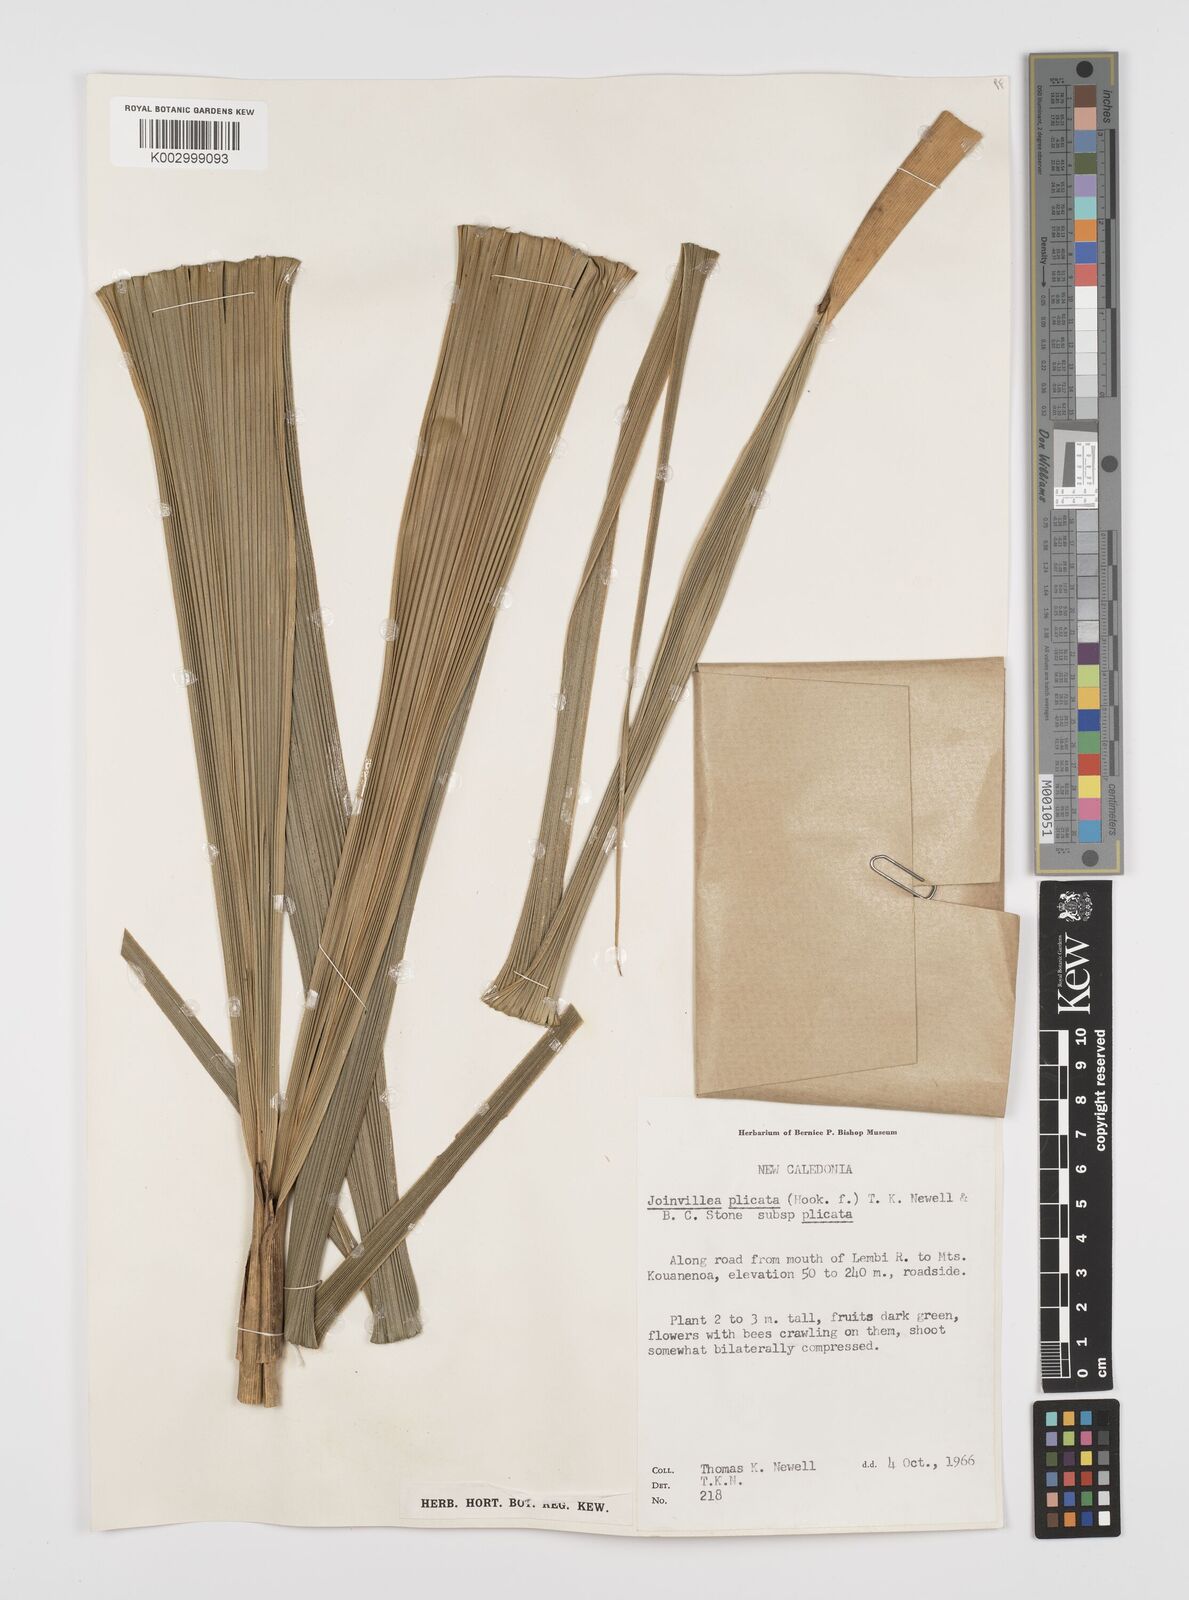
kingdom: Plantae
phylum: Tracheophyta
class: Liliopsida
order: Poales
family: Joinvilleaceae
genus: Joinvillea
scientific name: Joinvillea plicata
